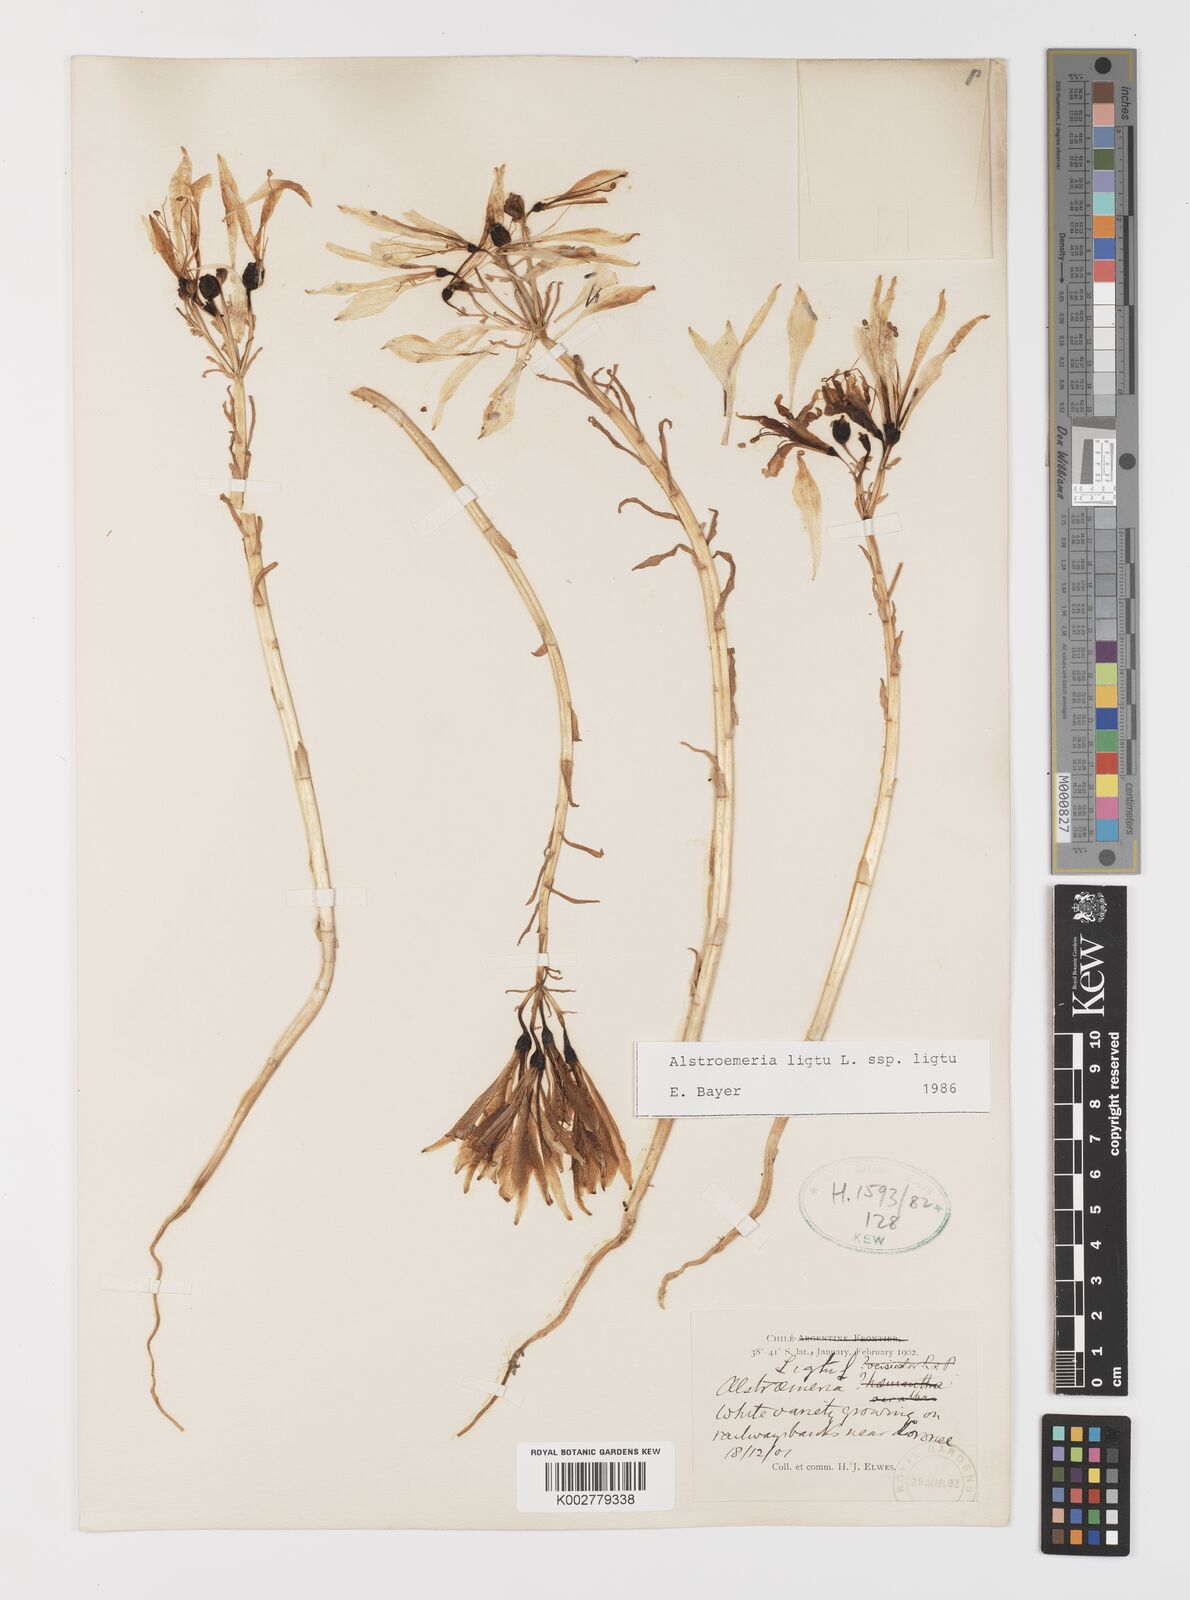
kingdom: Plantae
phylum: Tracheophyta
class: Liliopsida
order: Liliales
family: Alstroemeriaceae
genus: Alstroemeria
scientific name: Alstroemeria ligtu
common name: St. martin's-flower
